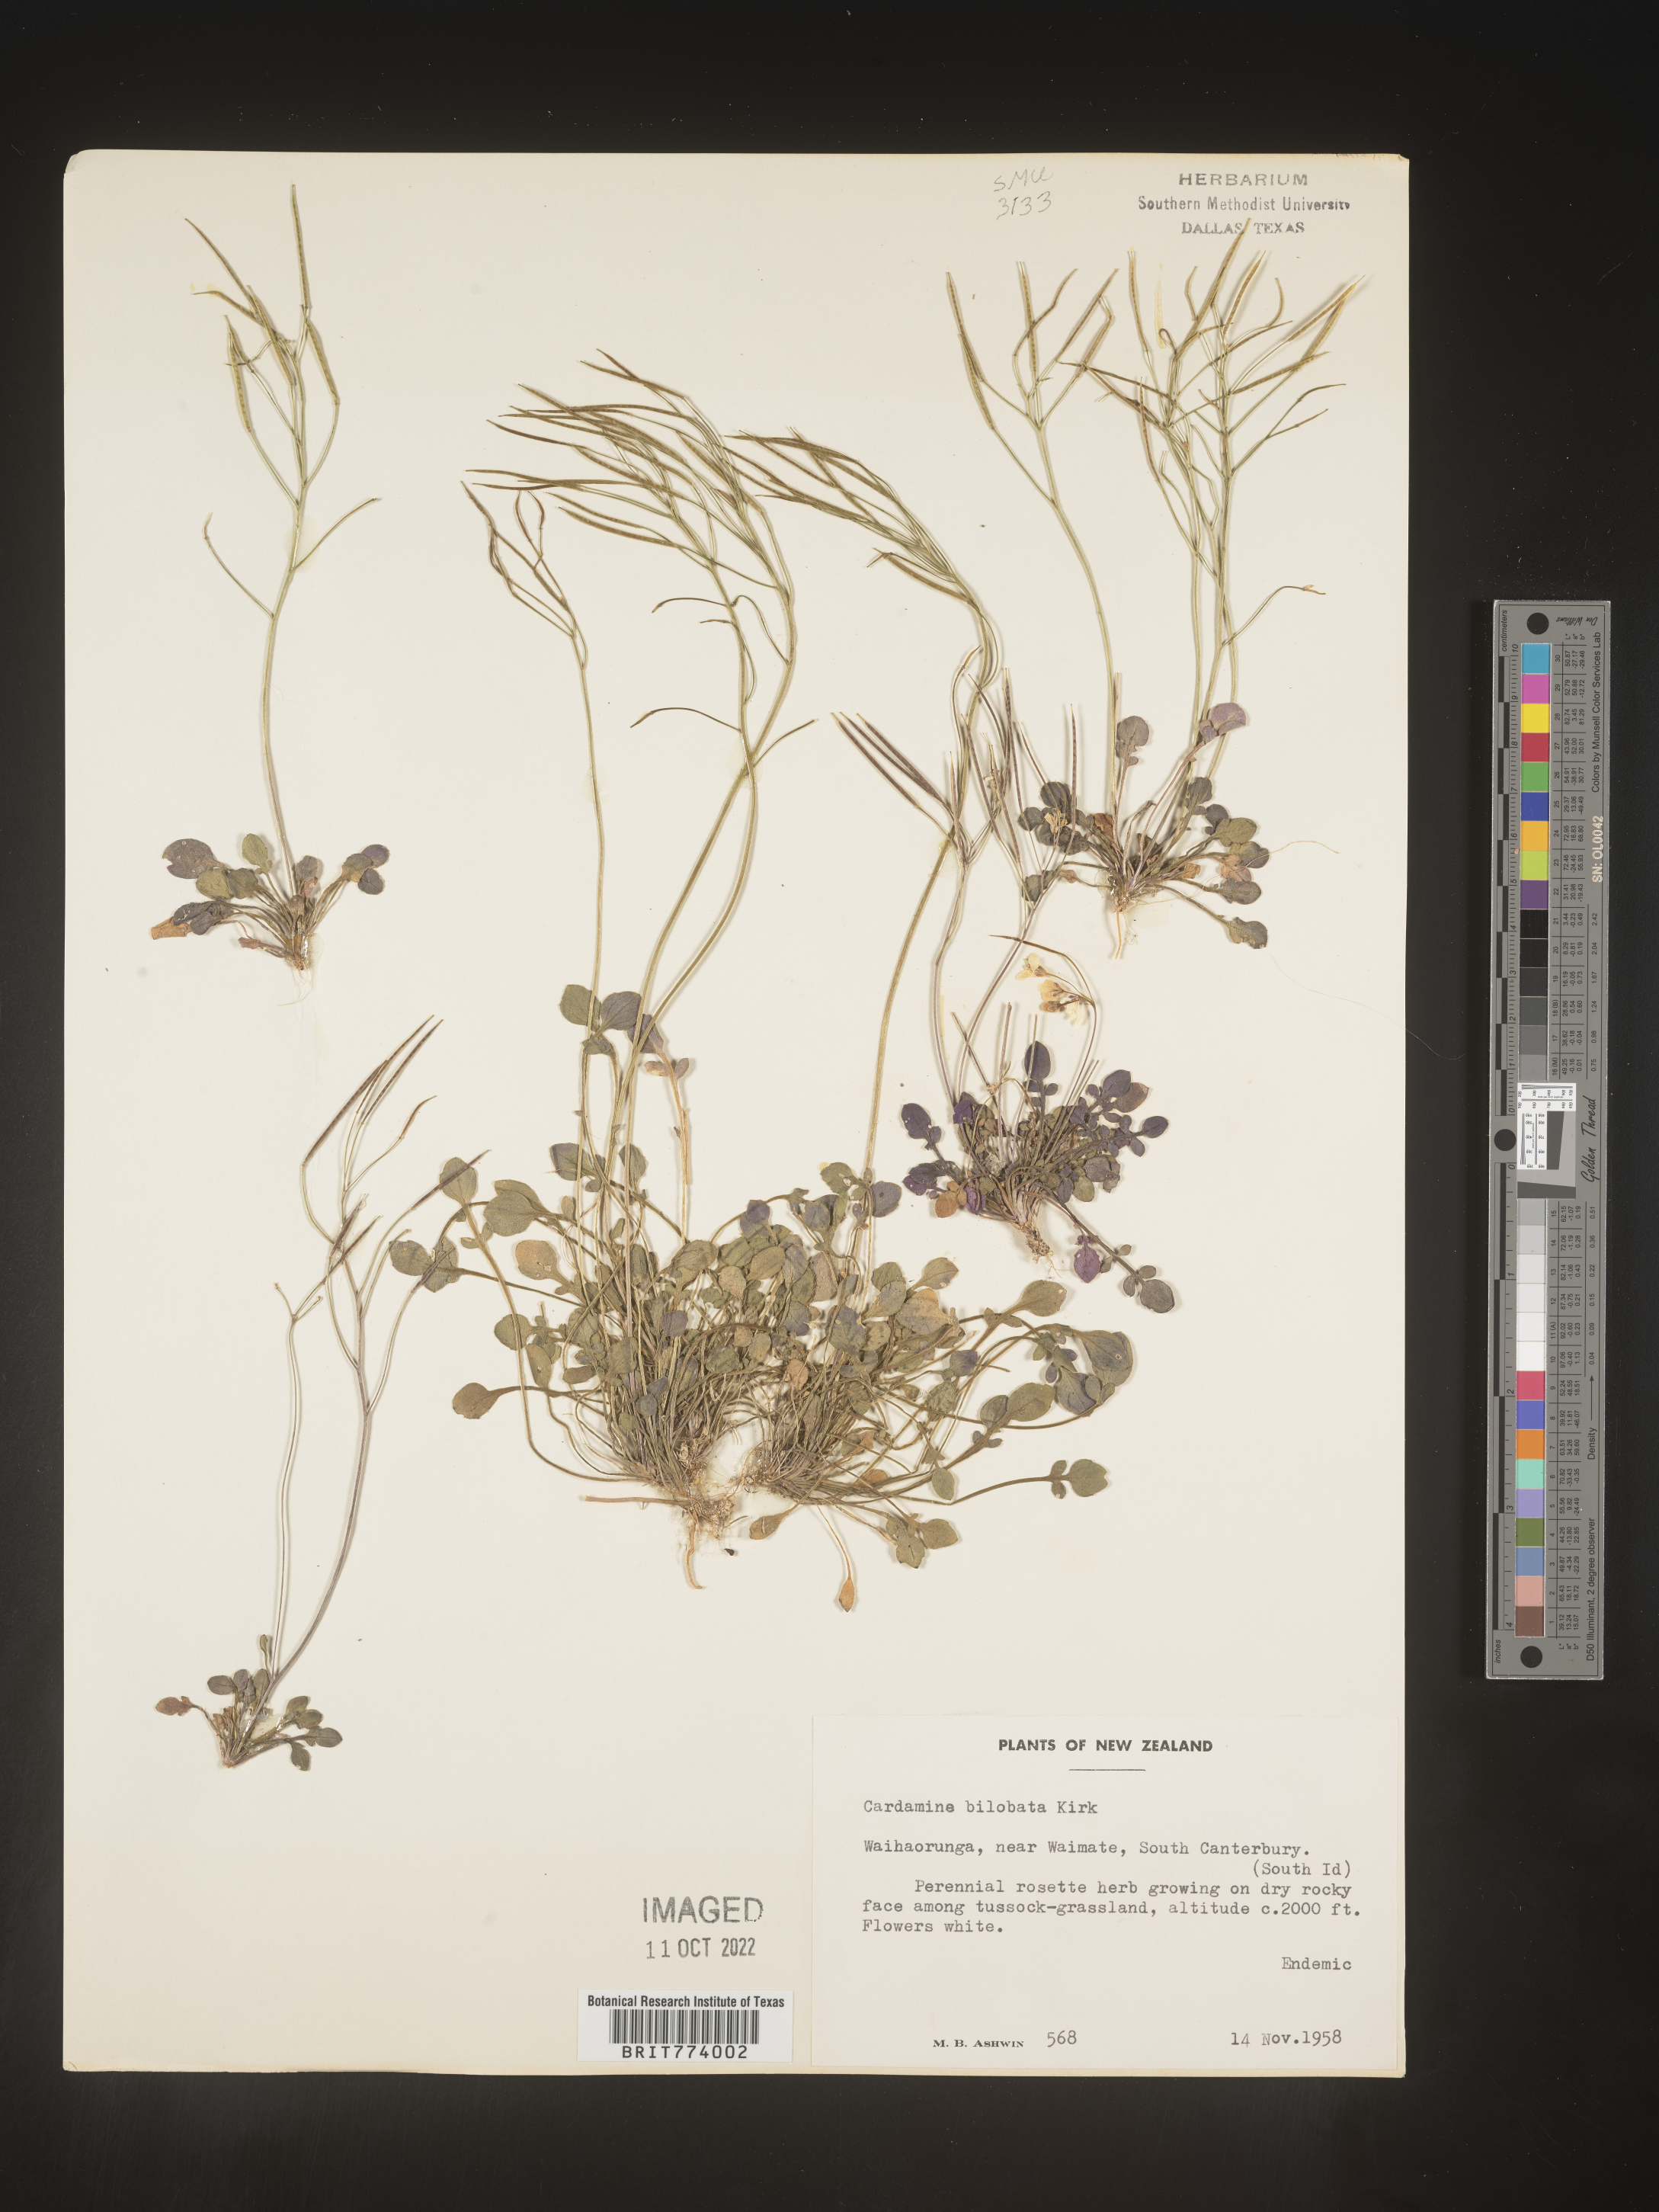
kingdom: Plantae
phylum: Tracheophyta
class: Magnoliopsida
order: Brassicales
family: Brassicaceae
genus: Cardamine
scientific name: Cardamine
